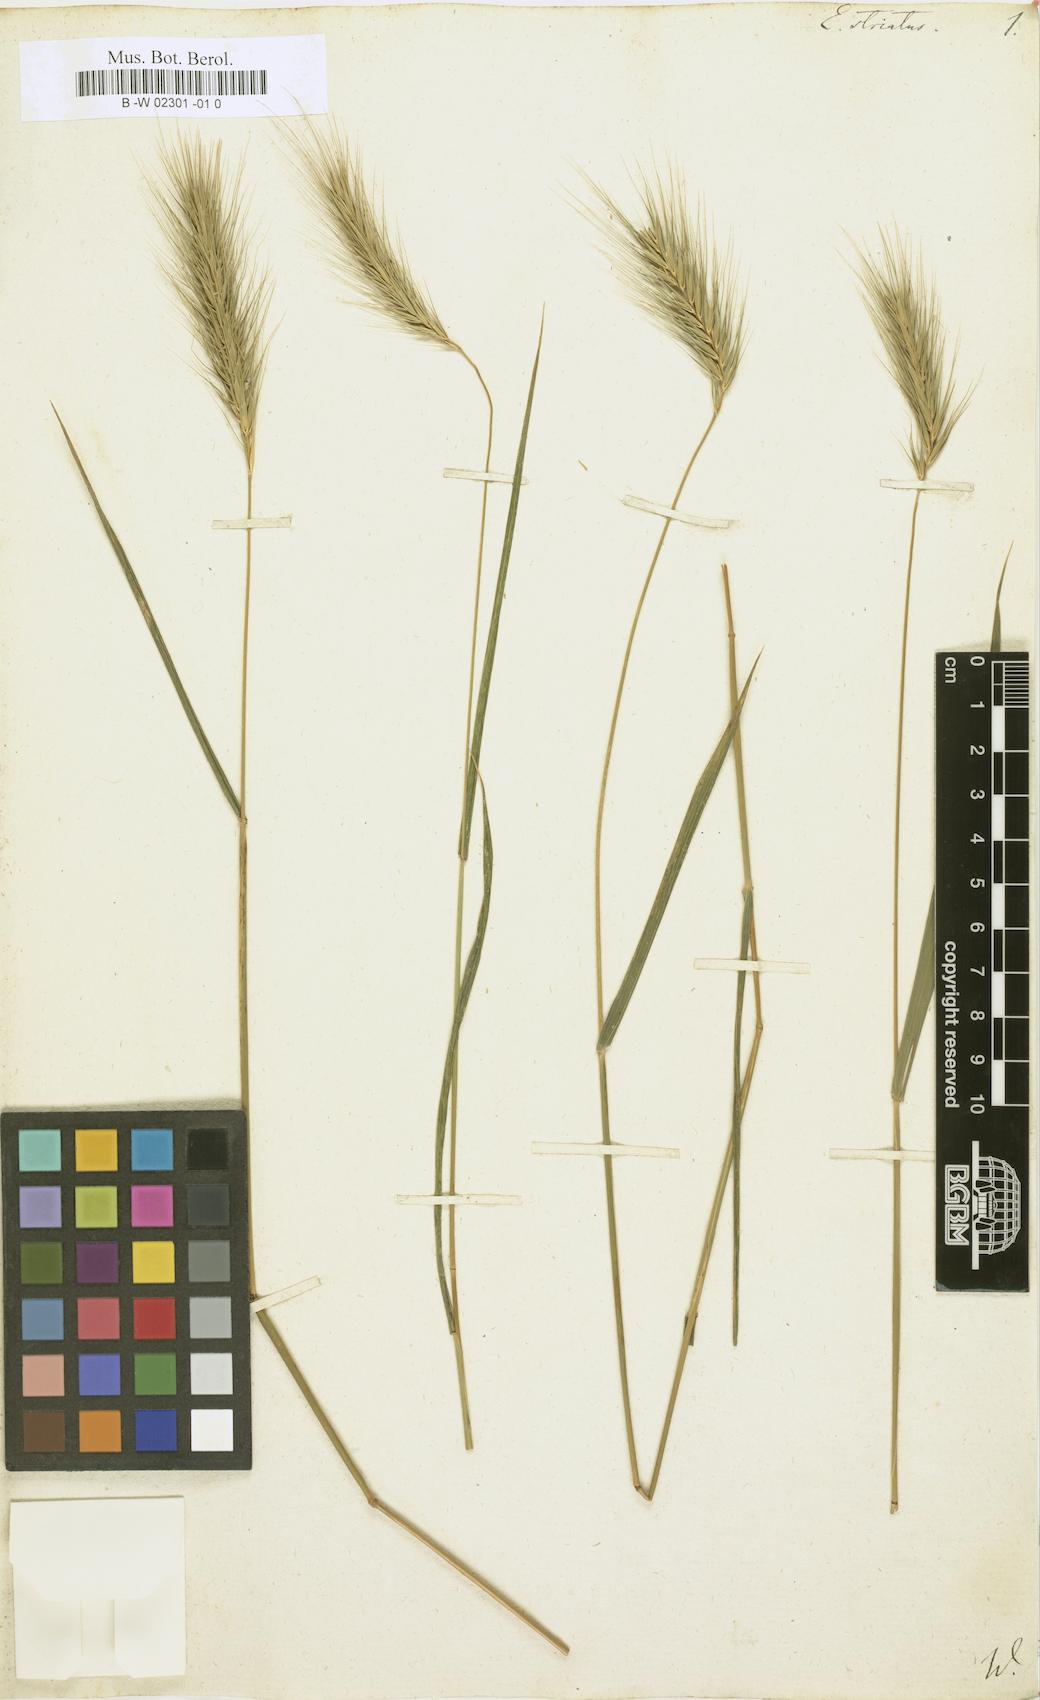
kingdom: Plantae
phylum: Tracheophyta
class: Liliopsida
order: Poales
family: Poaceae
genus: Elymus
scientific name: Elymus striatus
